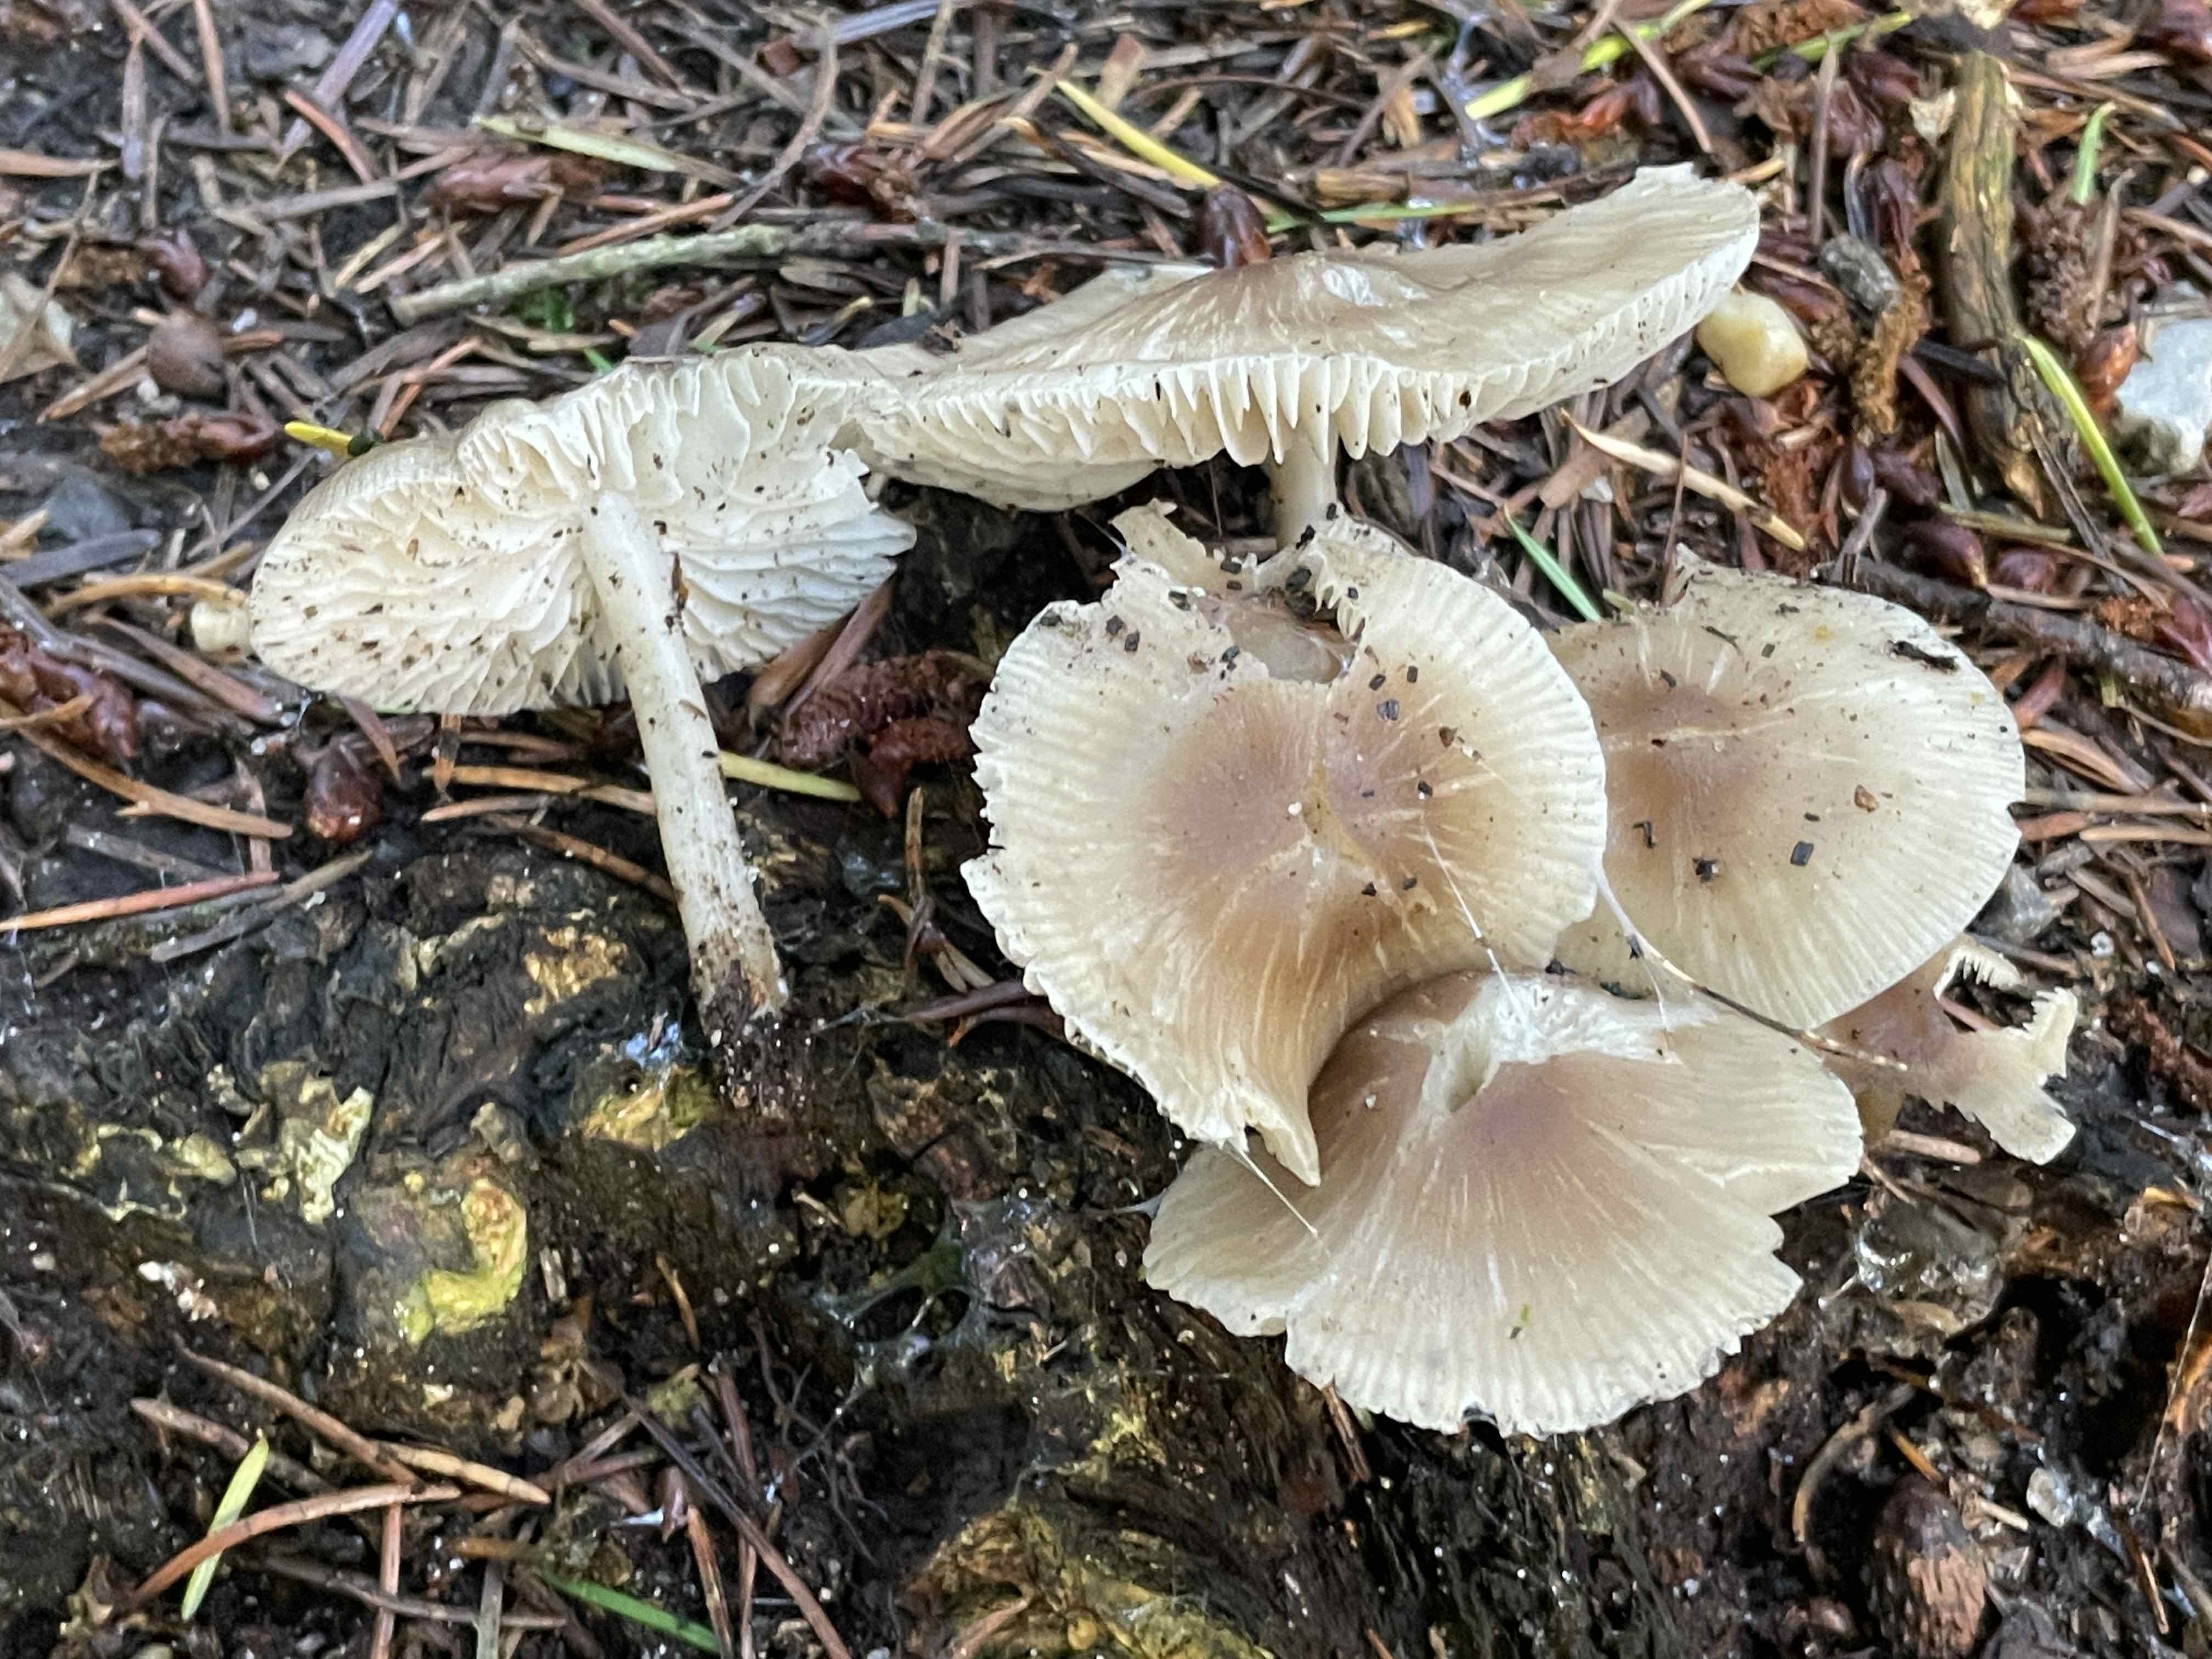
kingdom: Fungi
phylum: Basidiomycota
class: Agaricomycetes
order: Agaricales
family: Mycenaceae
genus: Mycena
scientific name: Mycena galericulata
